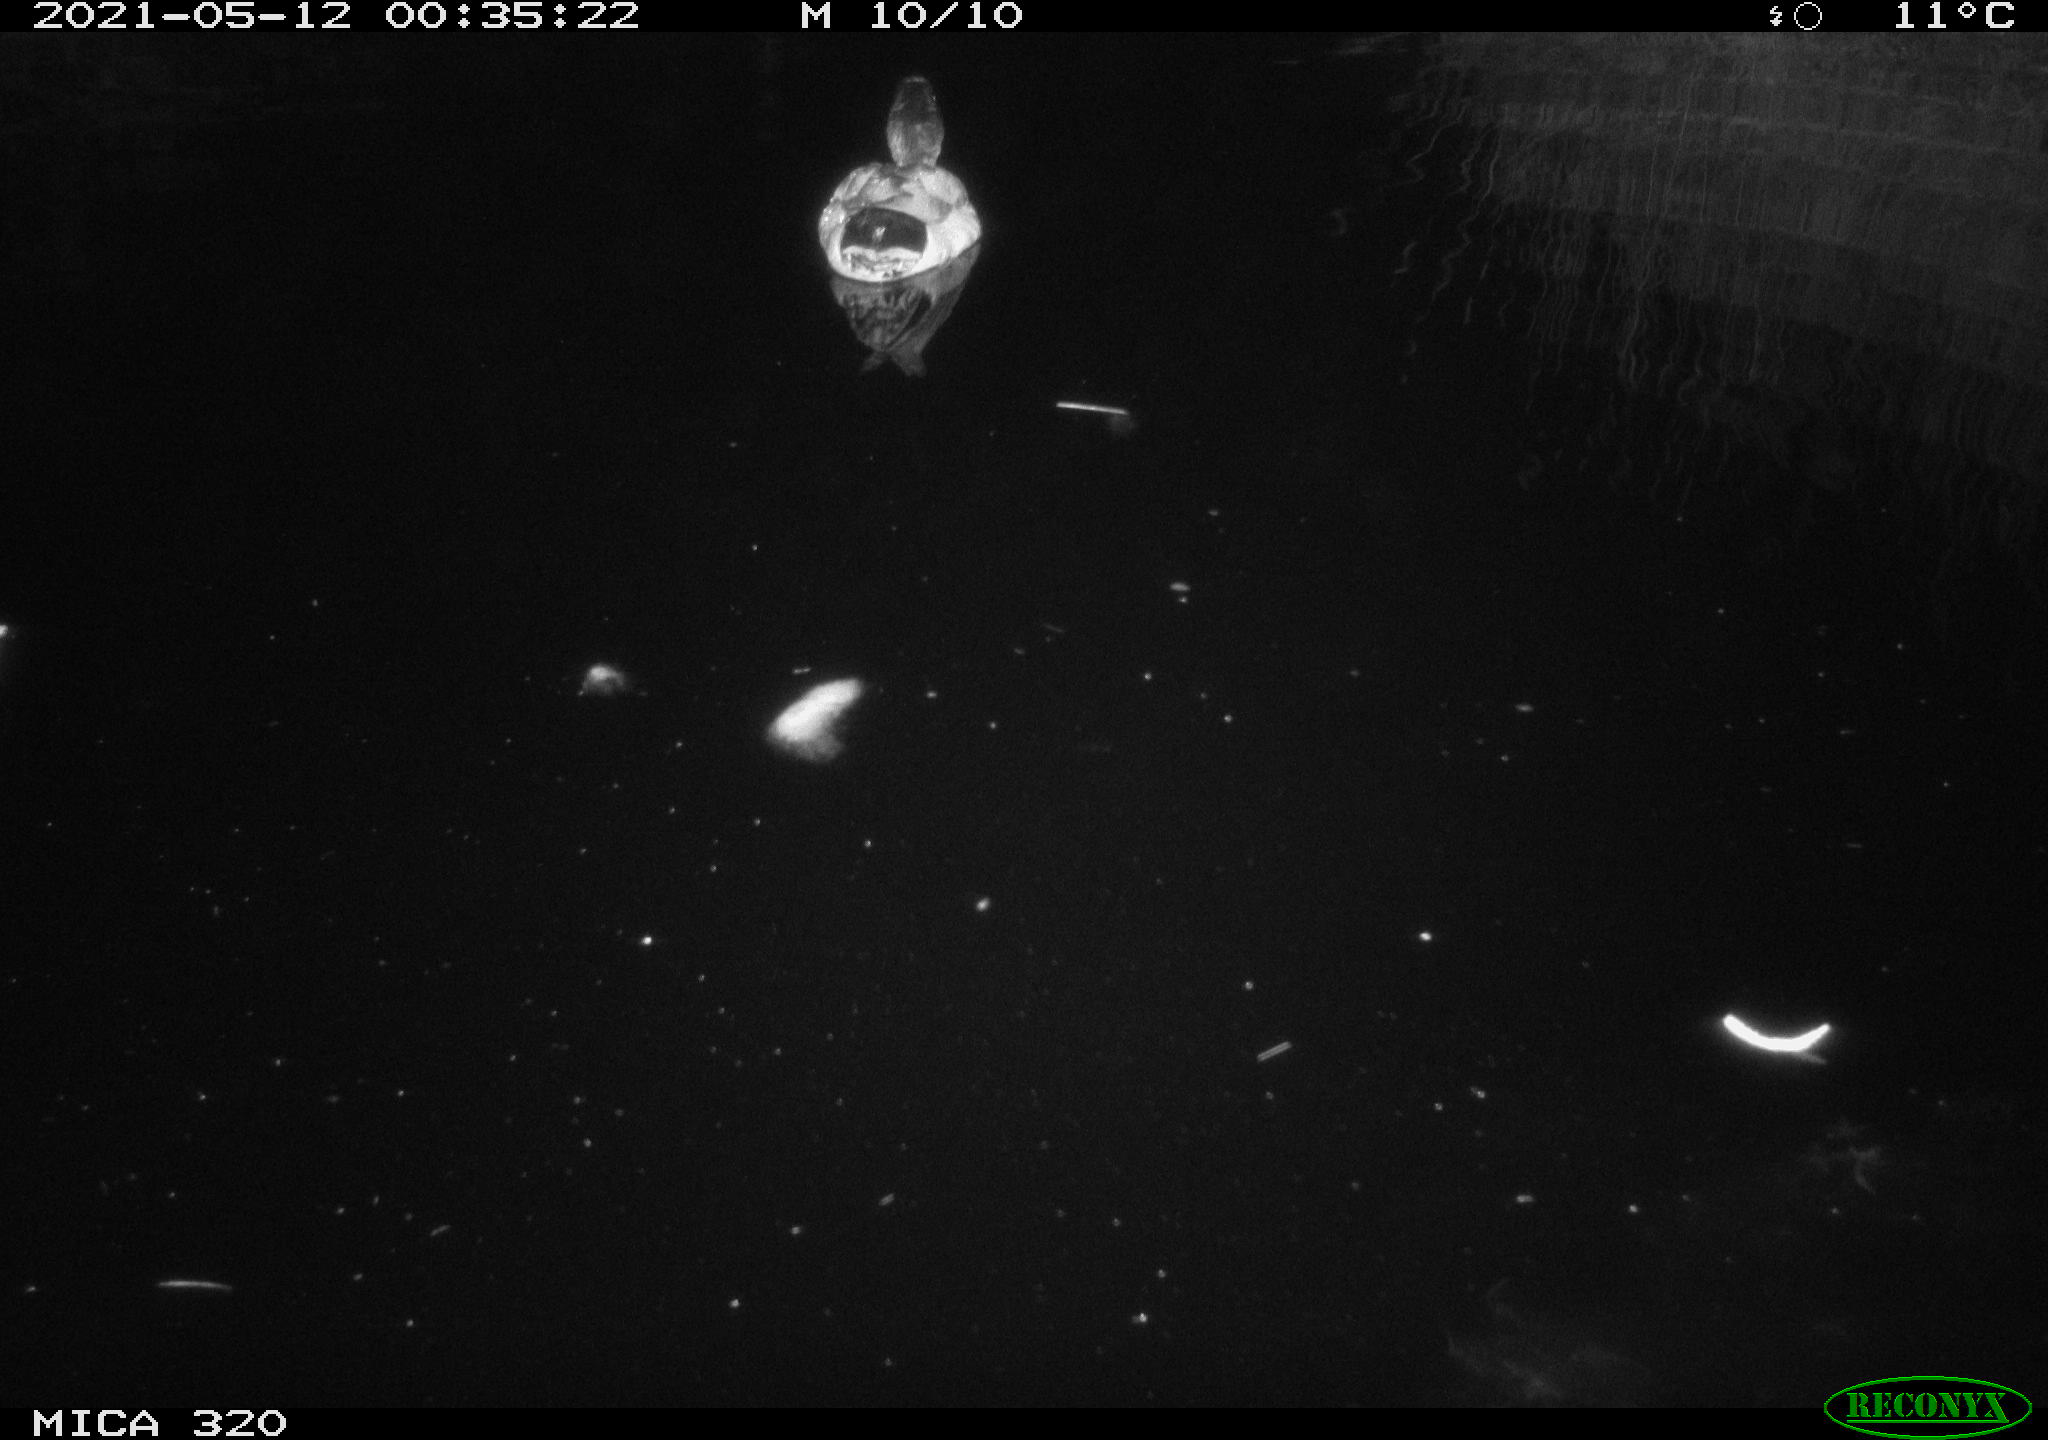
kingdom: Animalia
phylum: Chordata
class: Aves
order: Anseriformes
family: Anatidae
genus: Anas
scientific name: Anas platyrhynchos
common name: Mallard
